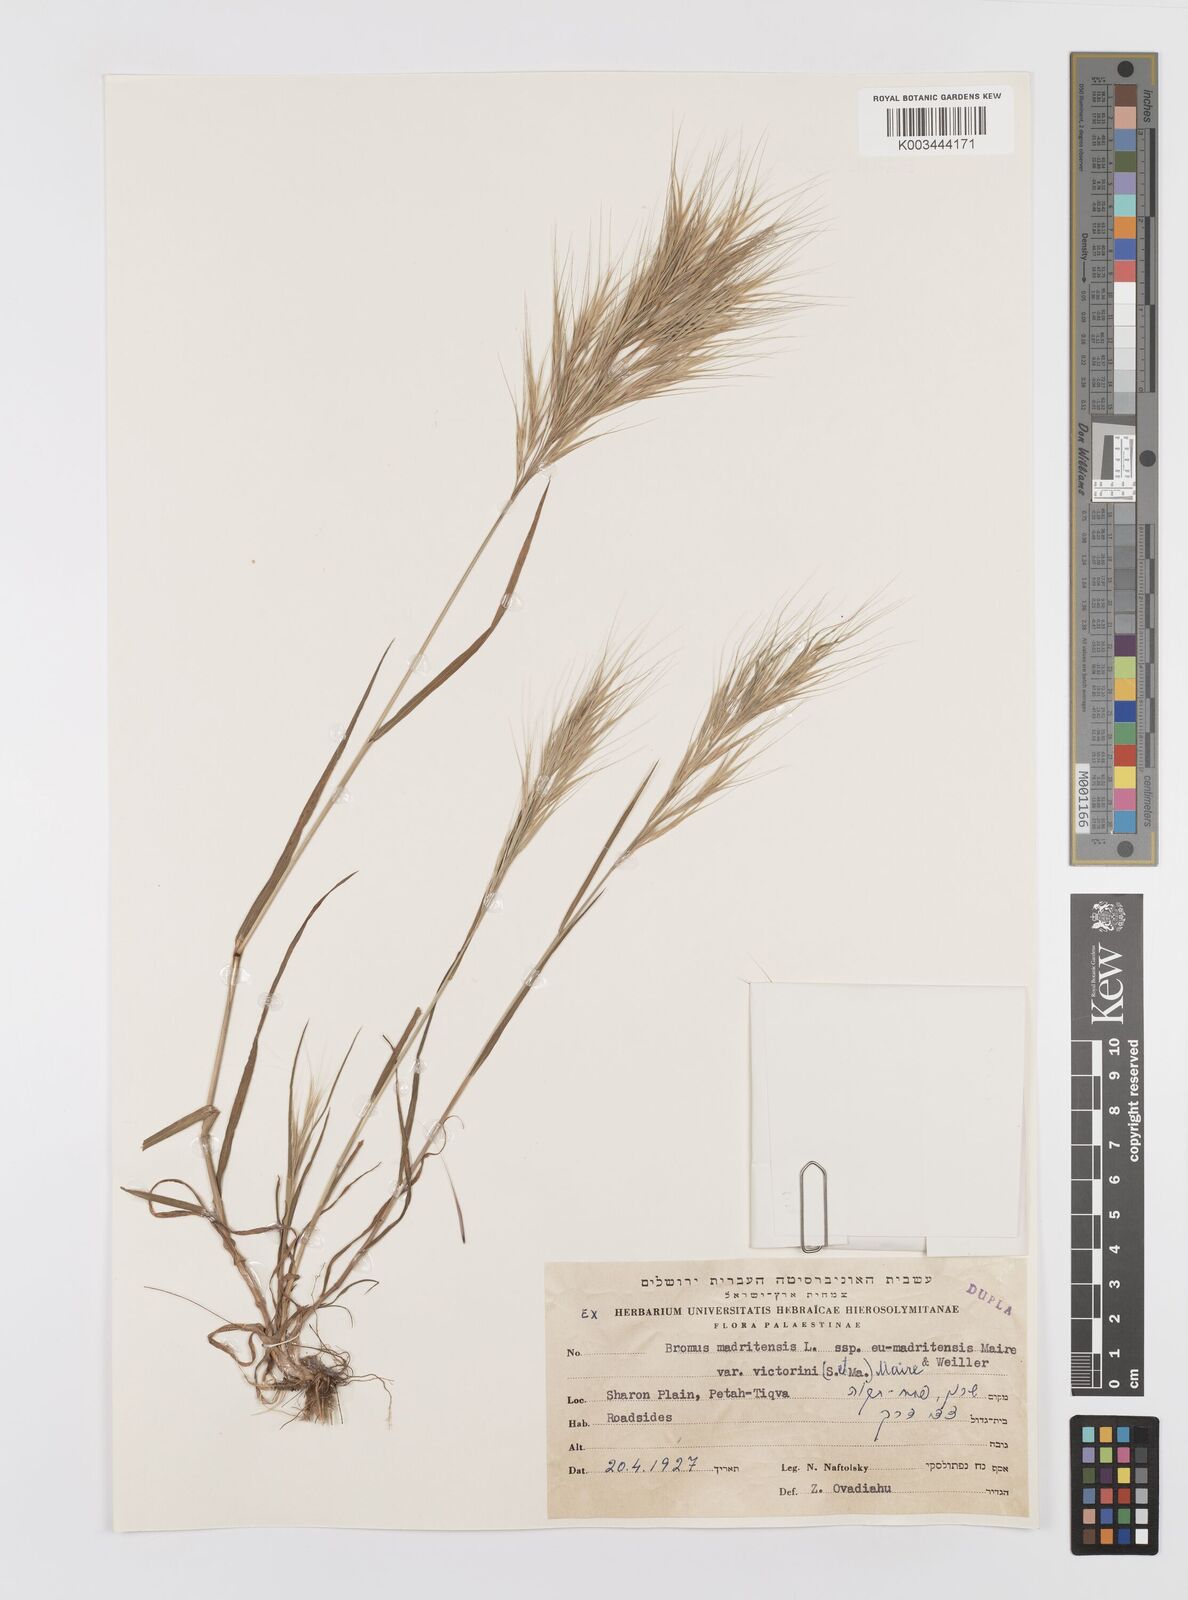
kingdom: Plantae
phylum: Tracheophyta
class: Liliopsida
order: Poales
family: Poaceae
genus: Bromus
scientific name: Bromus madritensis
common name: Compact brome
